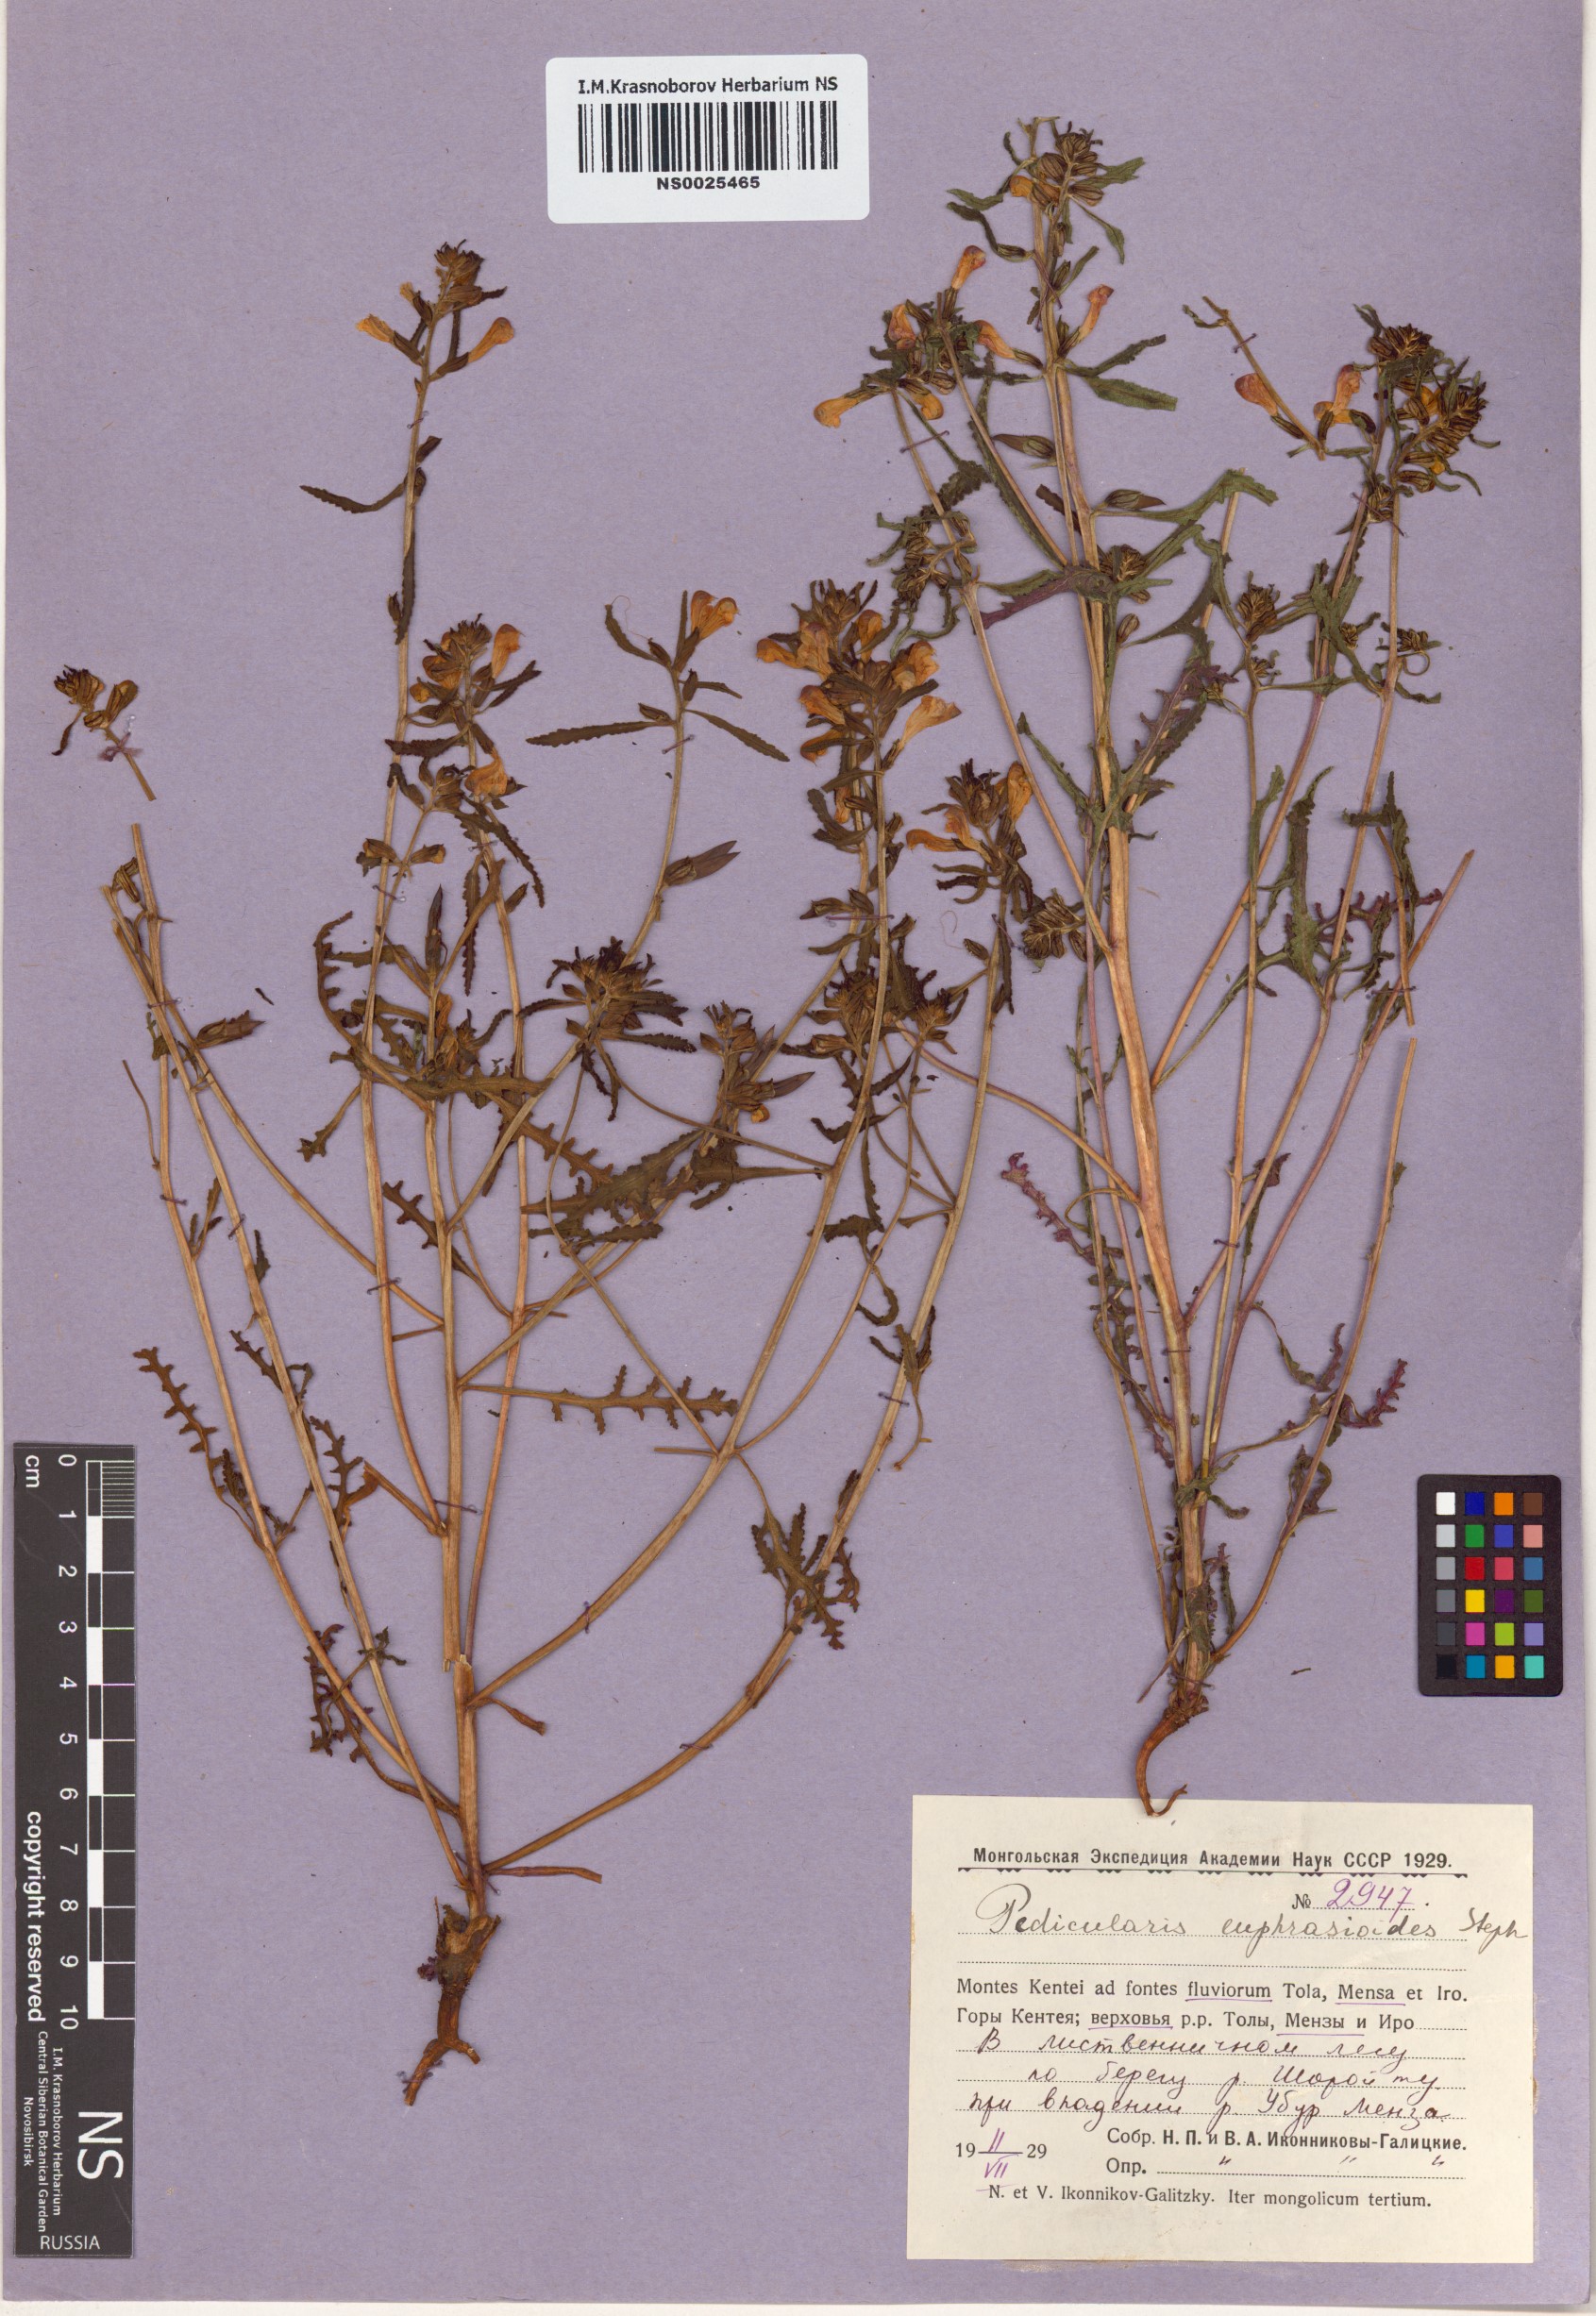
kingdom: Plantae
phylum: Tracheophyta
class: Magnoliopsida
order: Lamiales
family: Orobanchaceae
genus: Pedicularis
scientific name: Pedicularis labradorica
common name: Labrador lousewort
